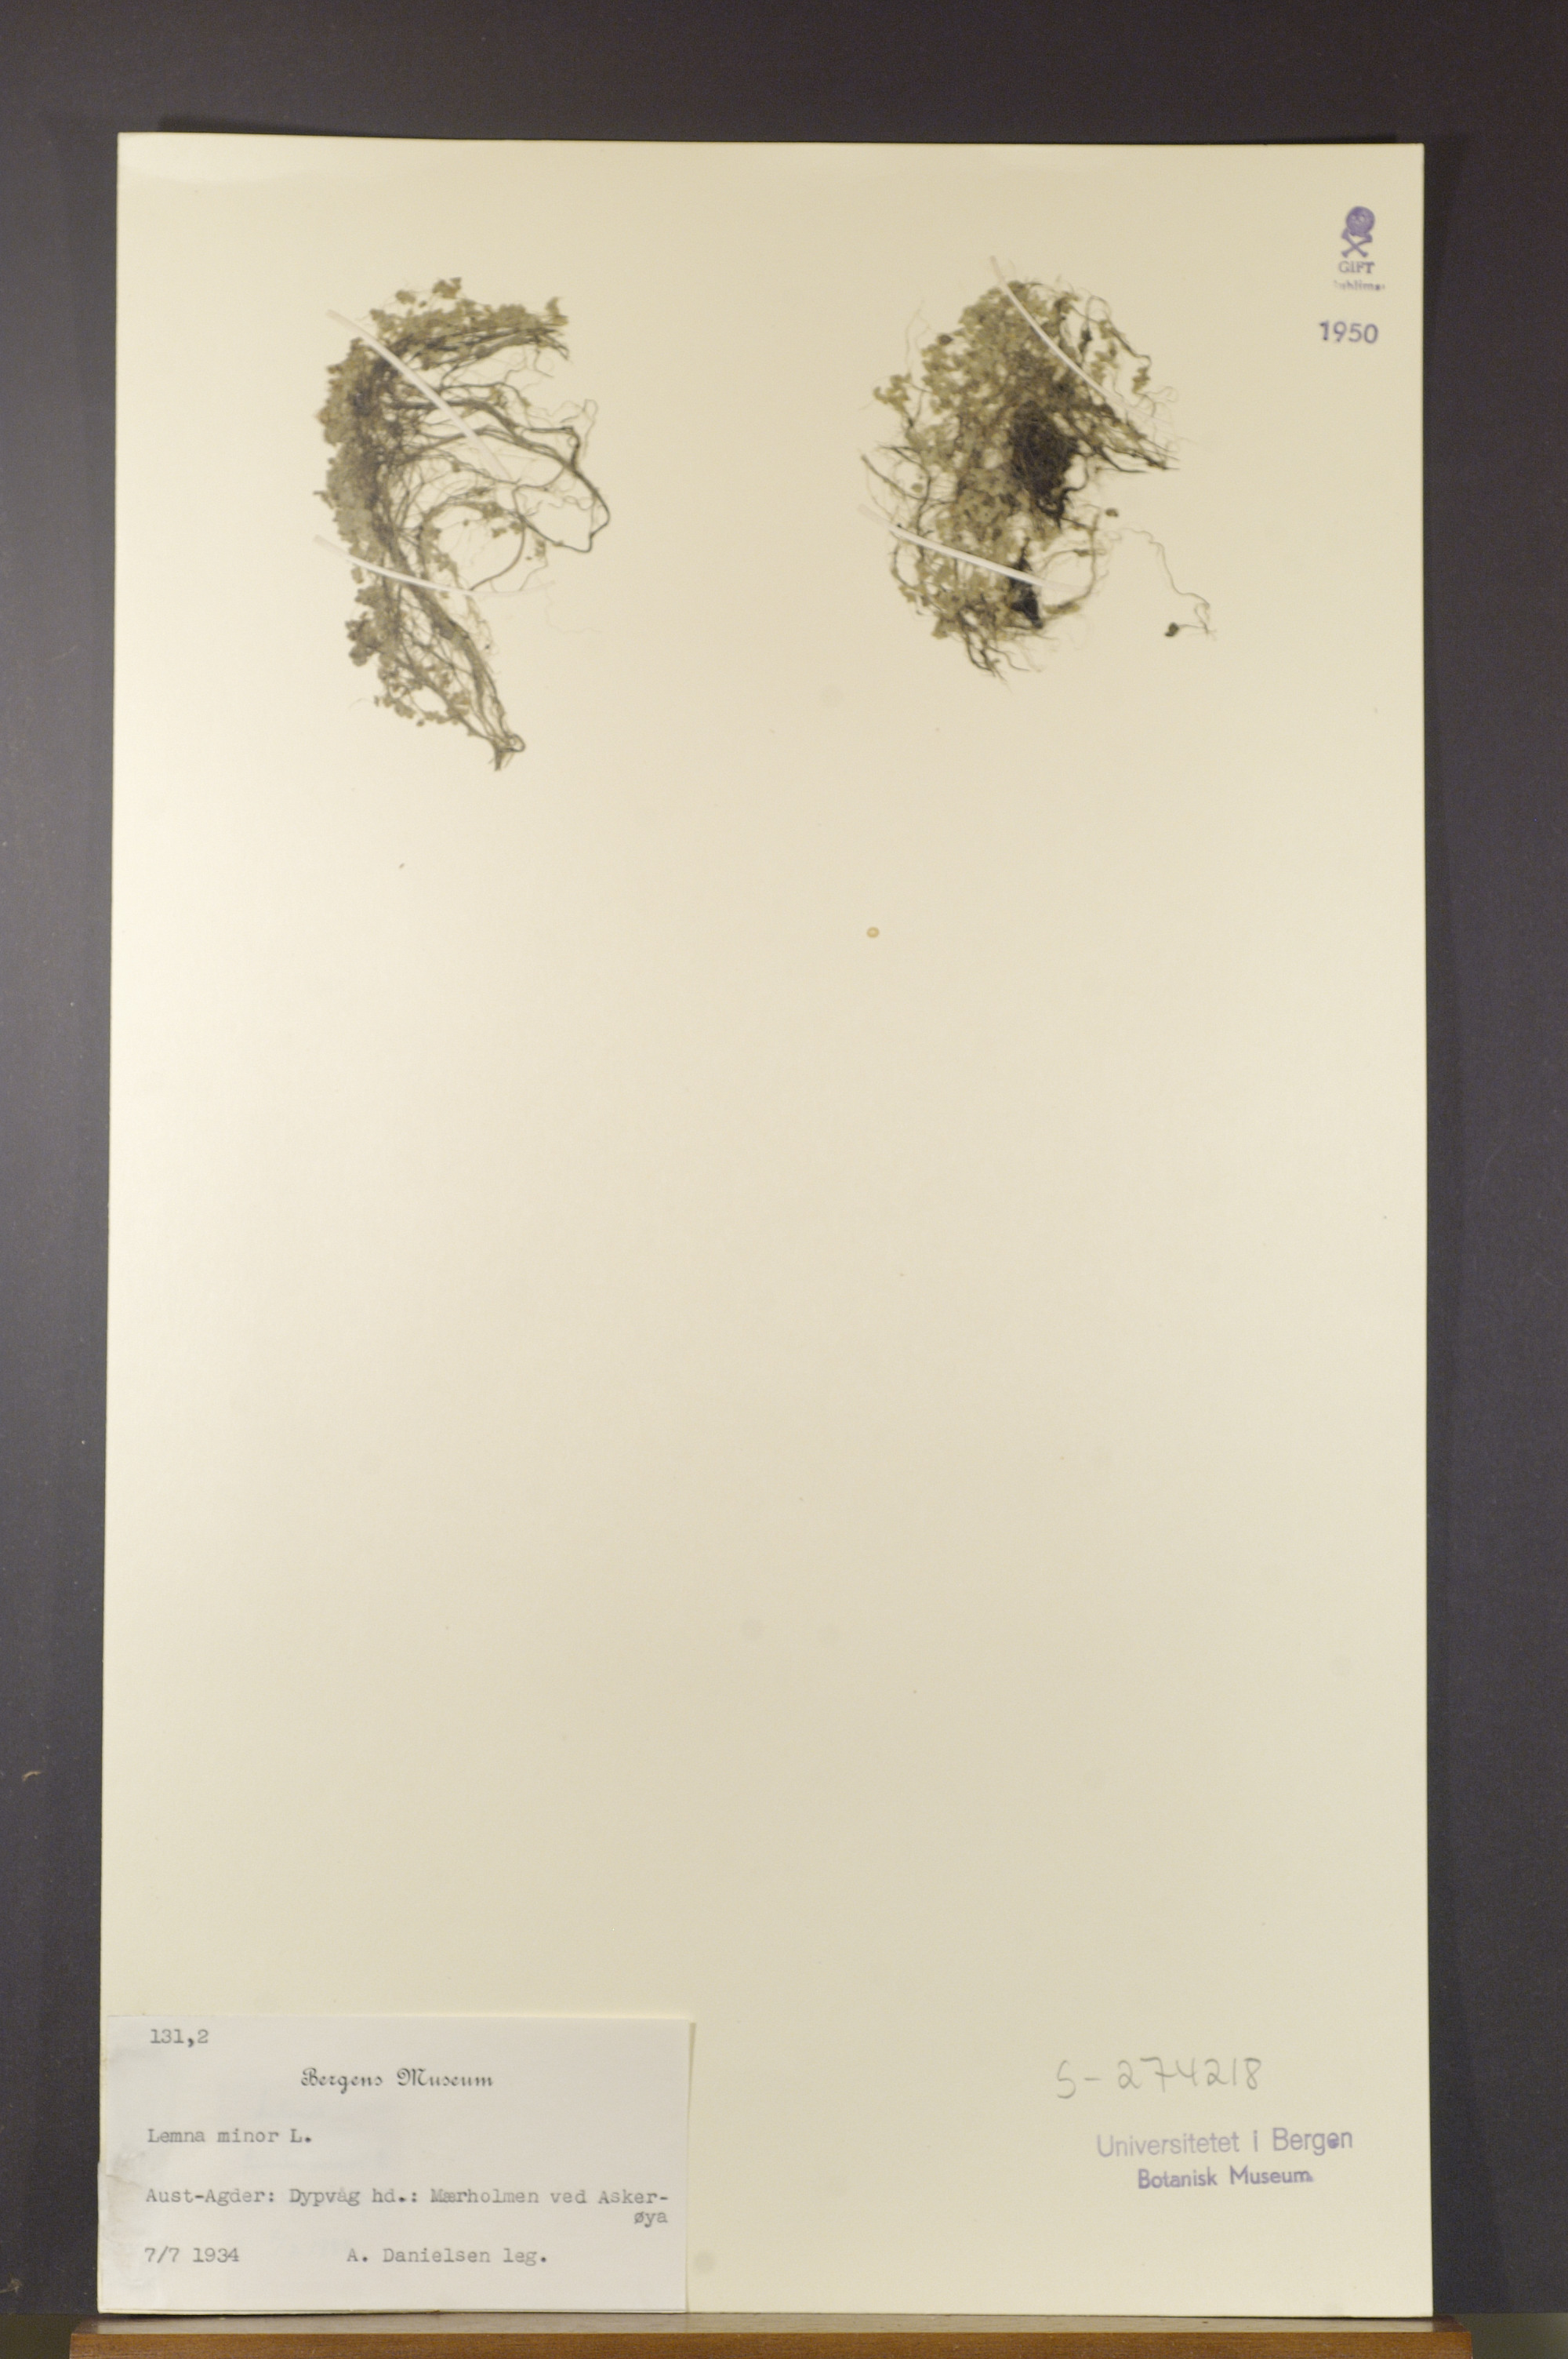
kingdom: Plantae
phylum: Tracheophyta
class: Liliopsida
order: Alismatales
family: Araceae
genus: Lemna
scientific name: Lemna minor
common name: Common duckweed
